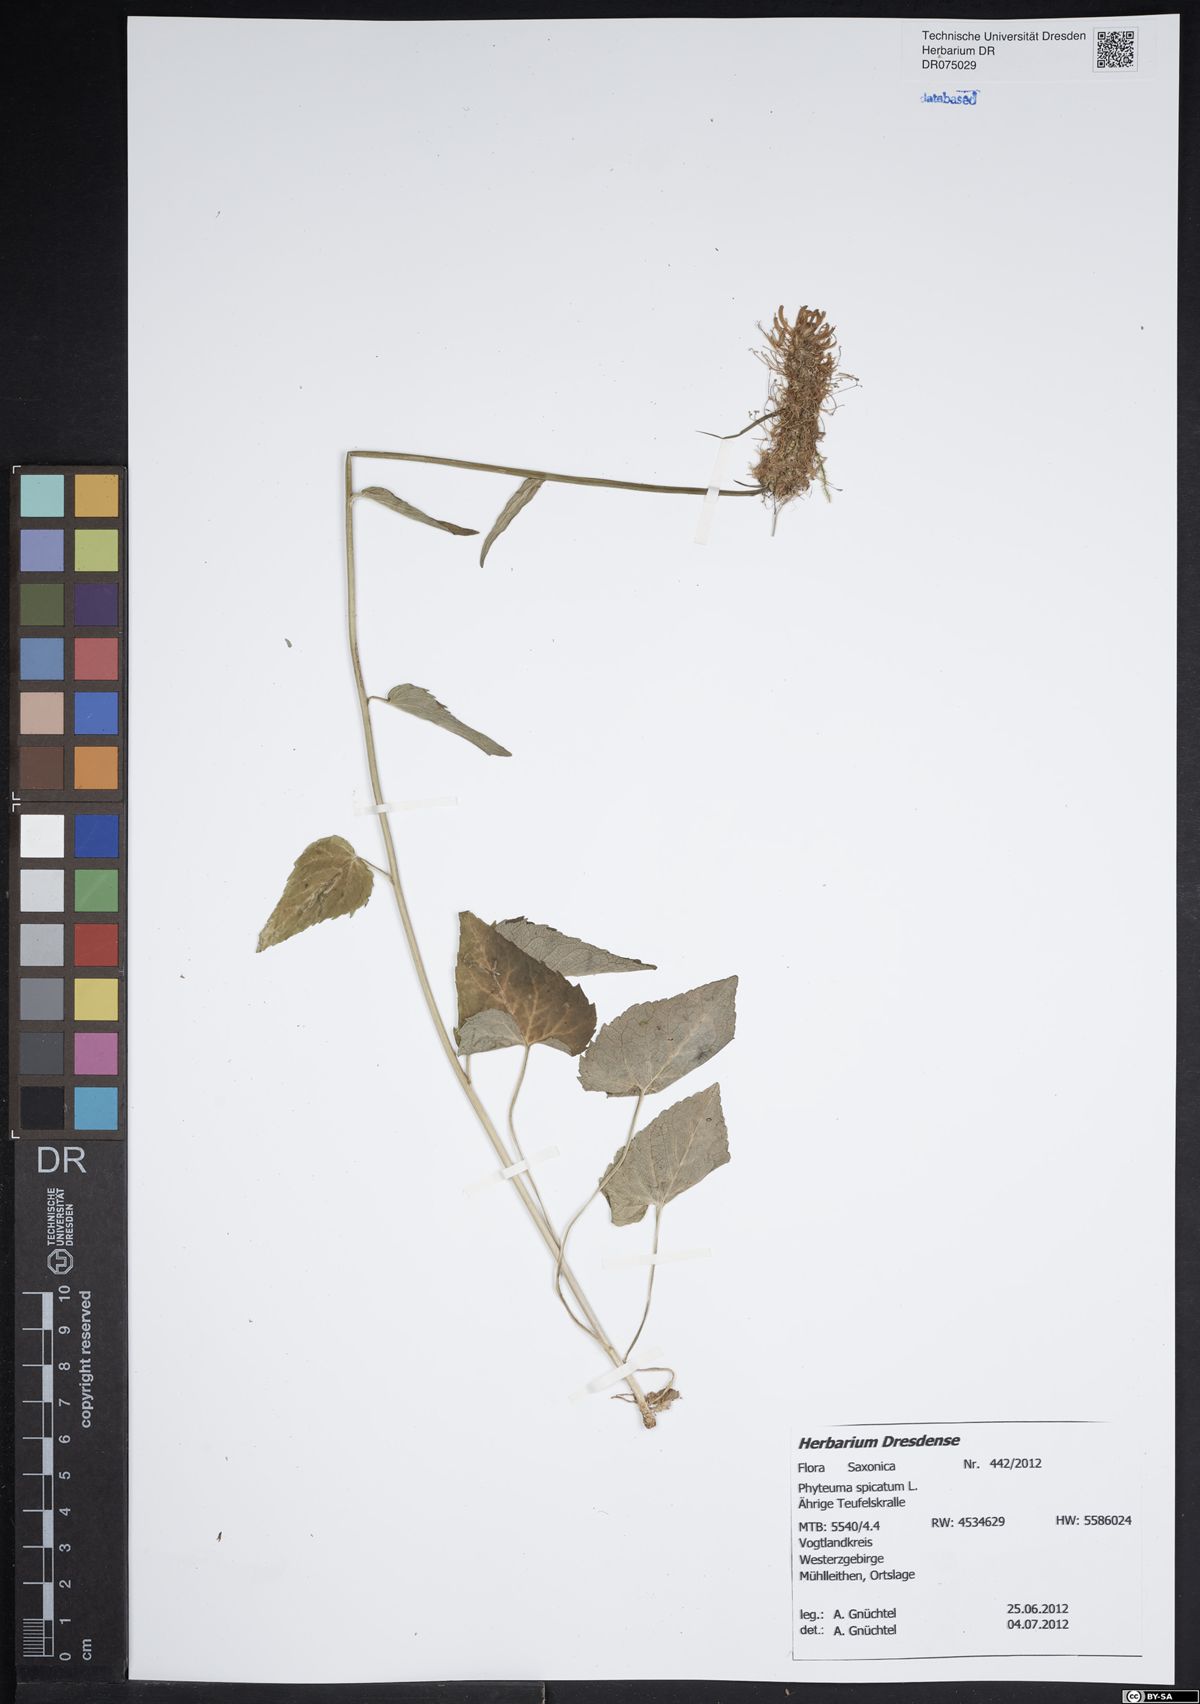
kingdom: Plantae
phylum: Tracheophyta
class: Magnoliopsida
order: Asterales
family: Campanulaceae
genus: Phyteuma
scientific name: Phyteuma spicatum
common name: Spiked rampion
